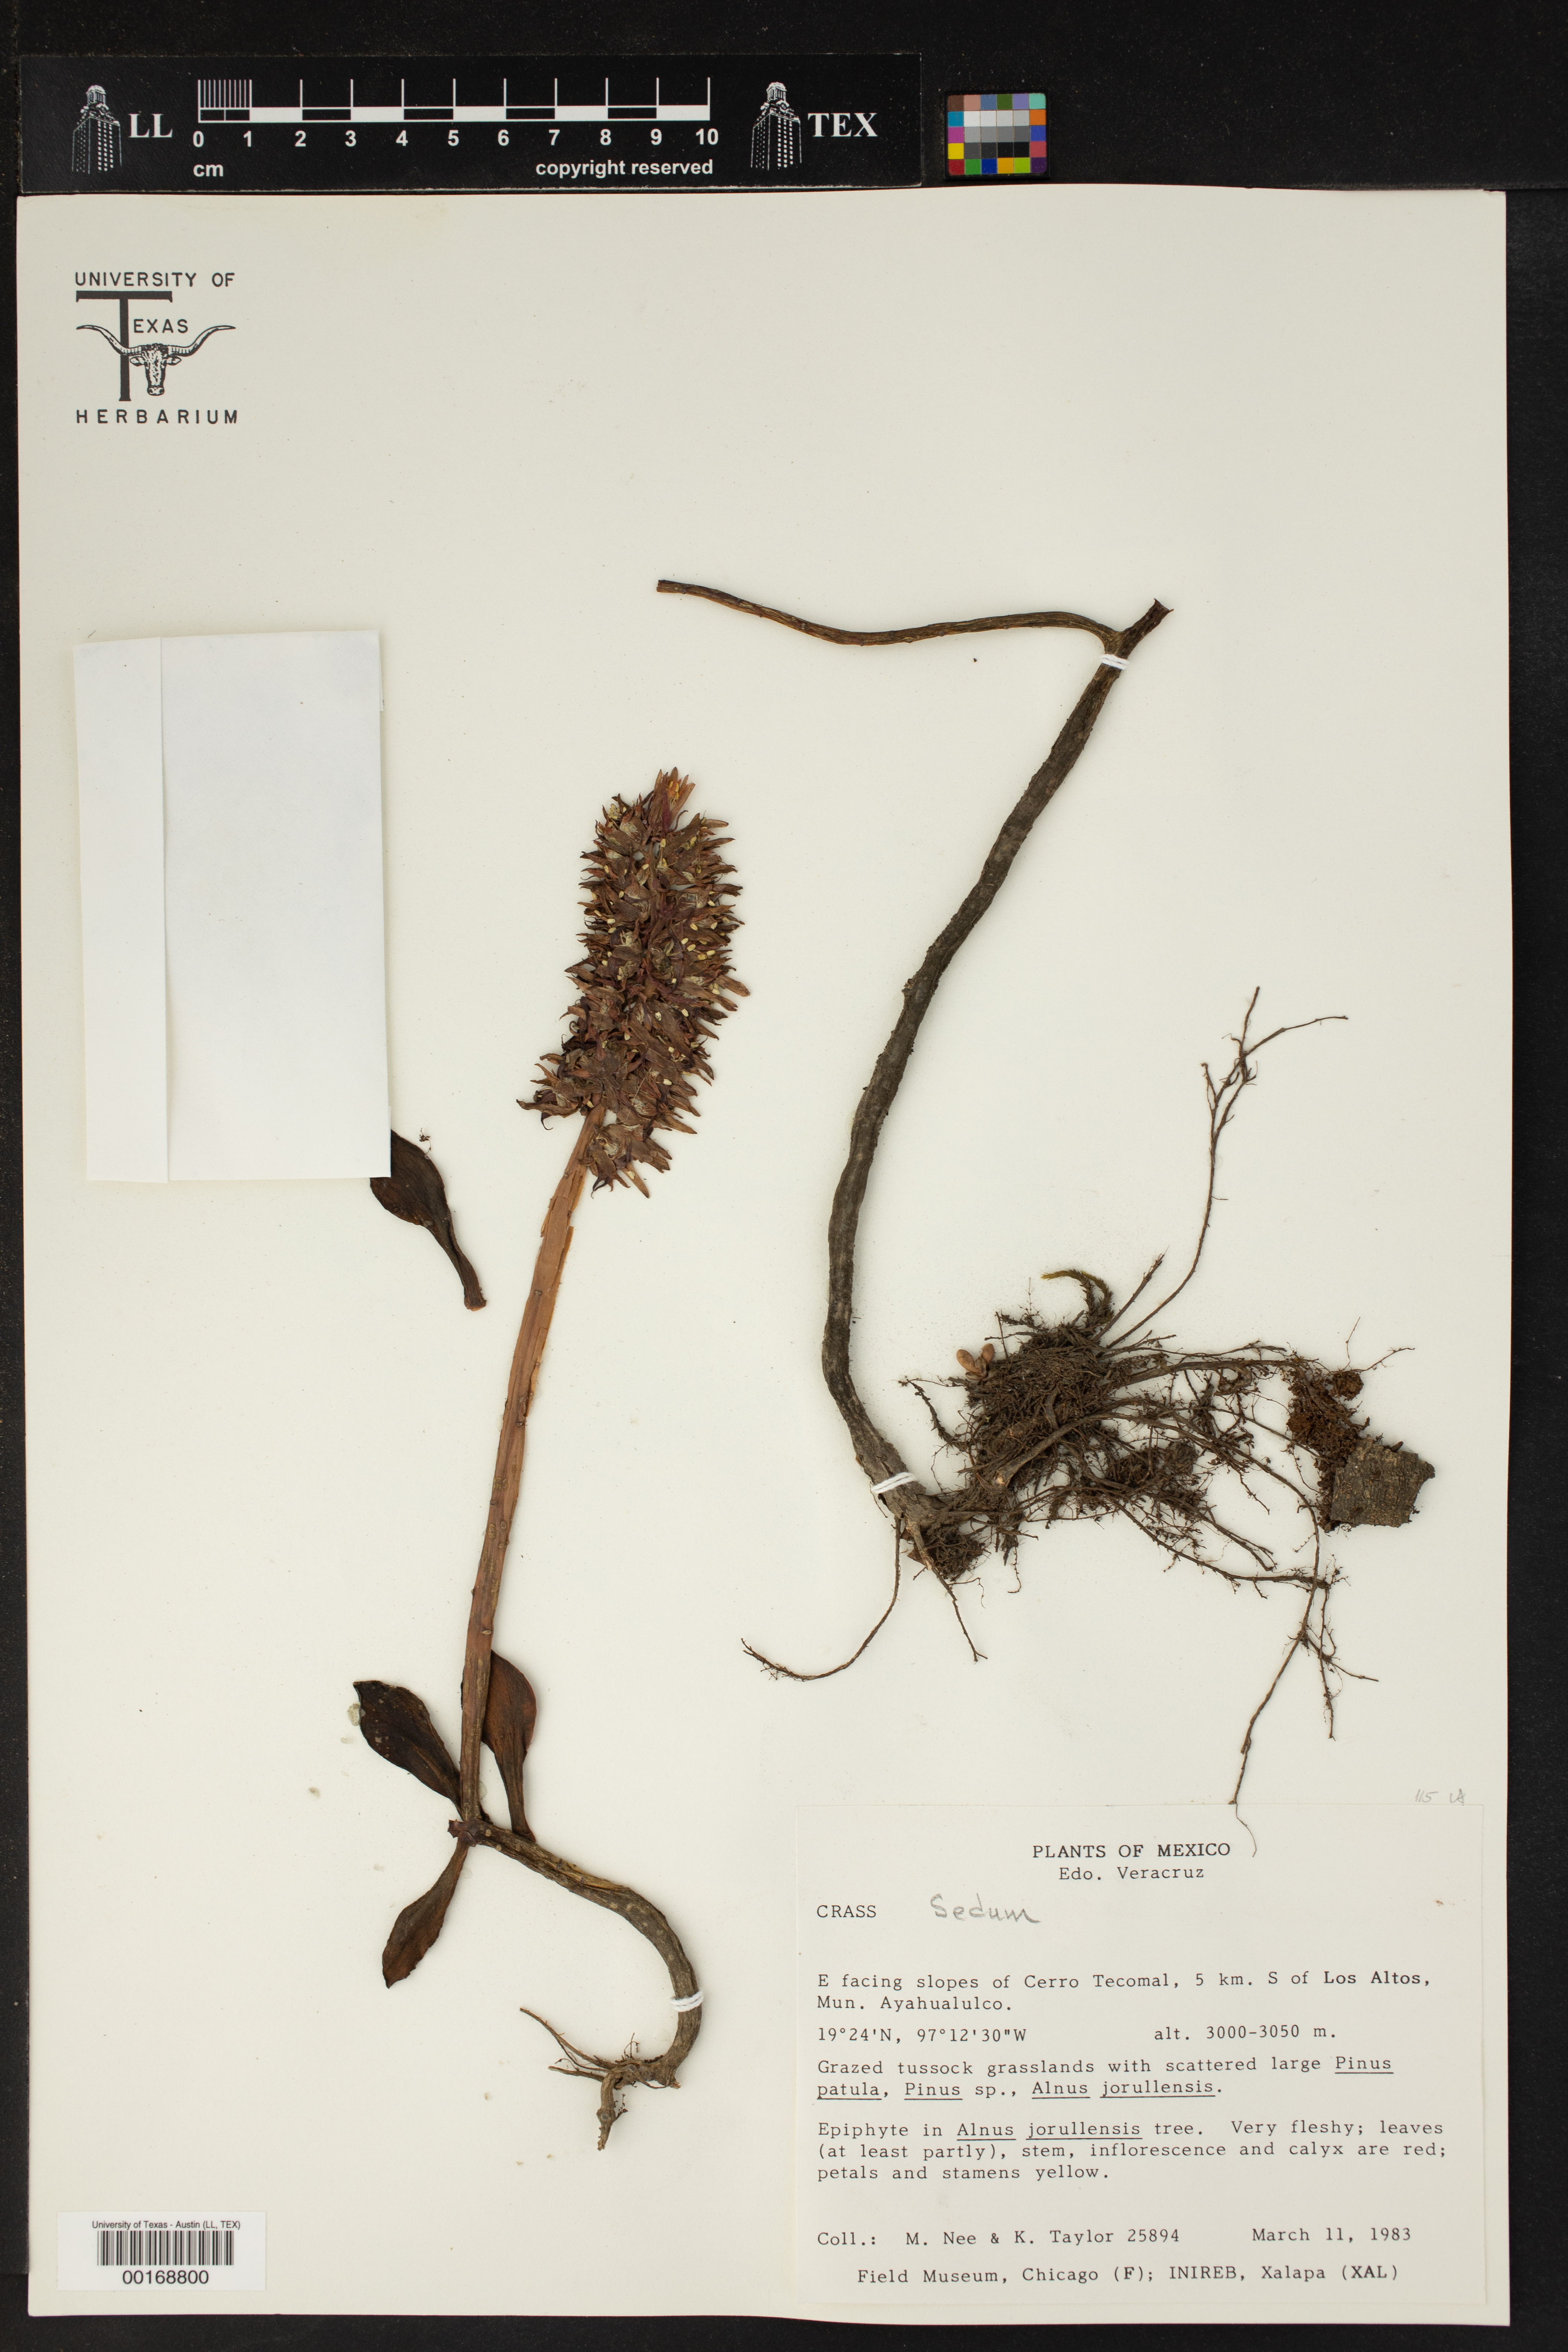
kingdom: Plantae
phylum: Tracheophyta
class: Magnoliopsida
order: Saxifragales
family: Crassulaceae
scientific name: Crassulaceae
